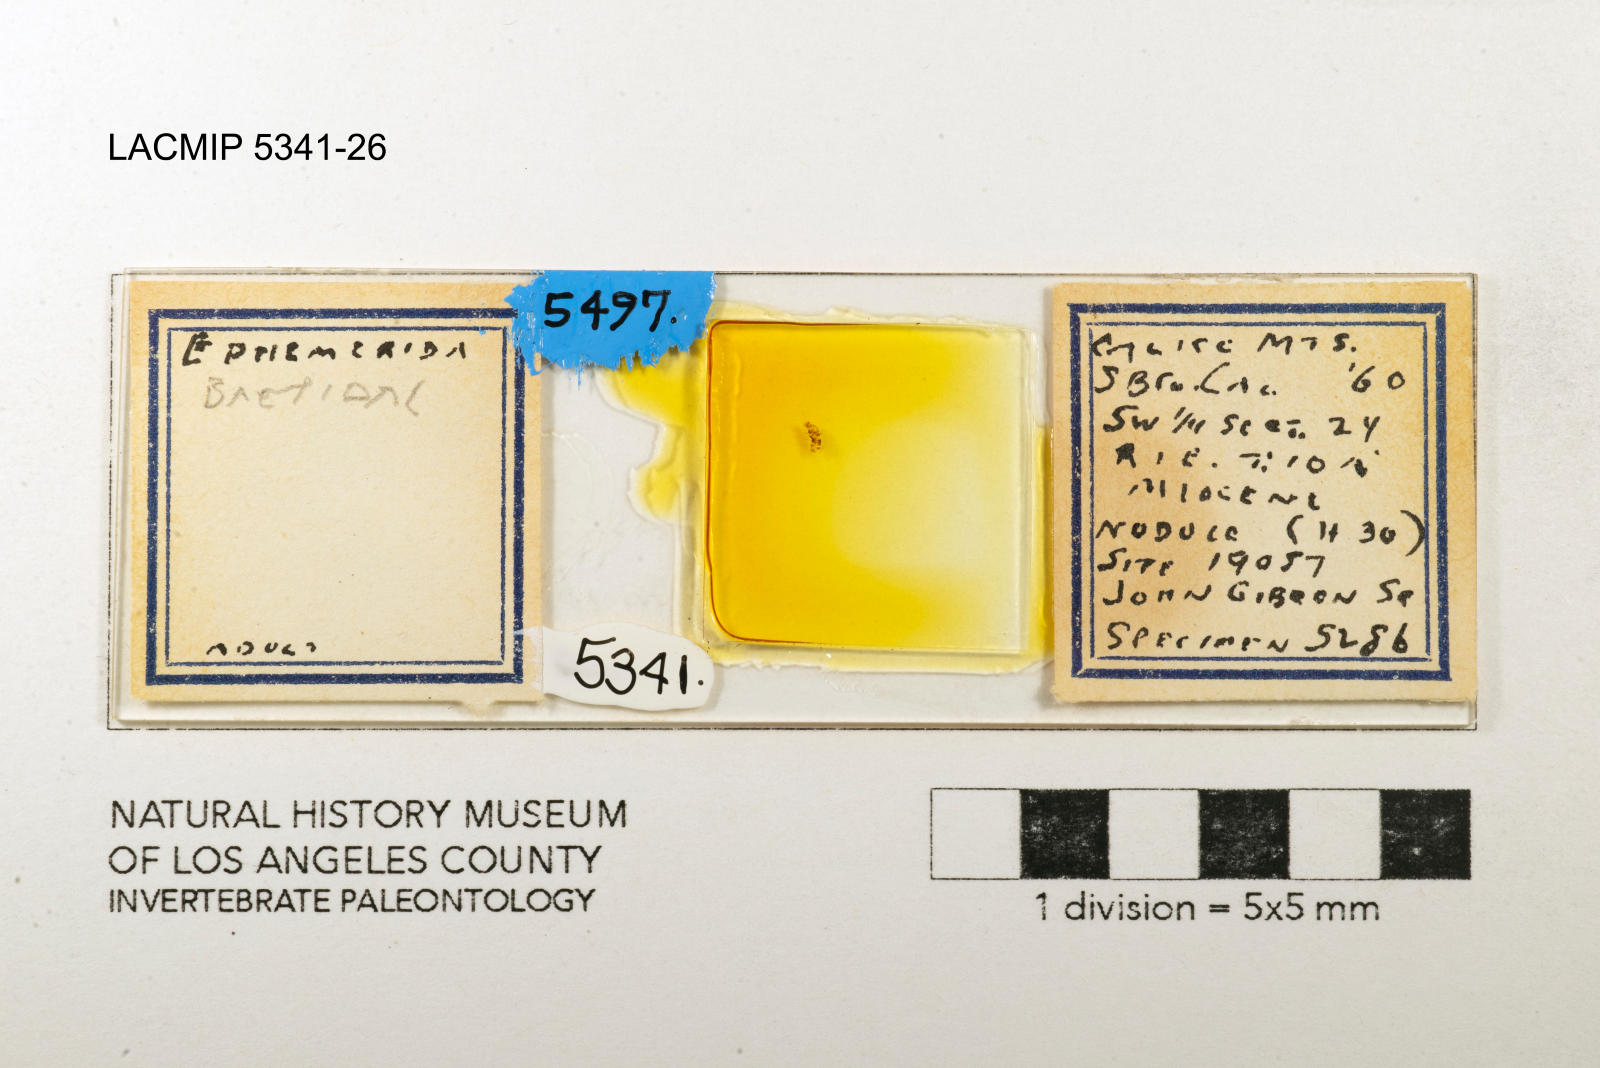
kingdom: Animalia
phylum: Arthropoda
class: Insecta
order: Ephemeroptera
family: Baetidae
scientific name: Baetidae
